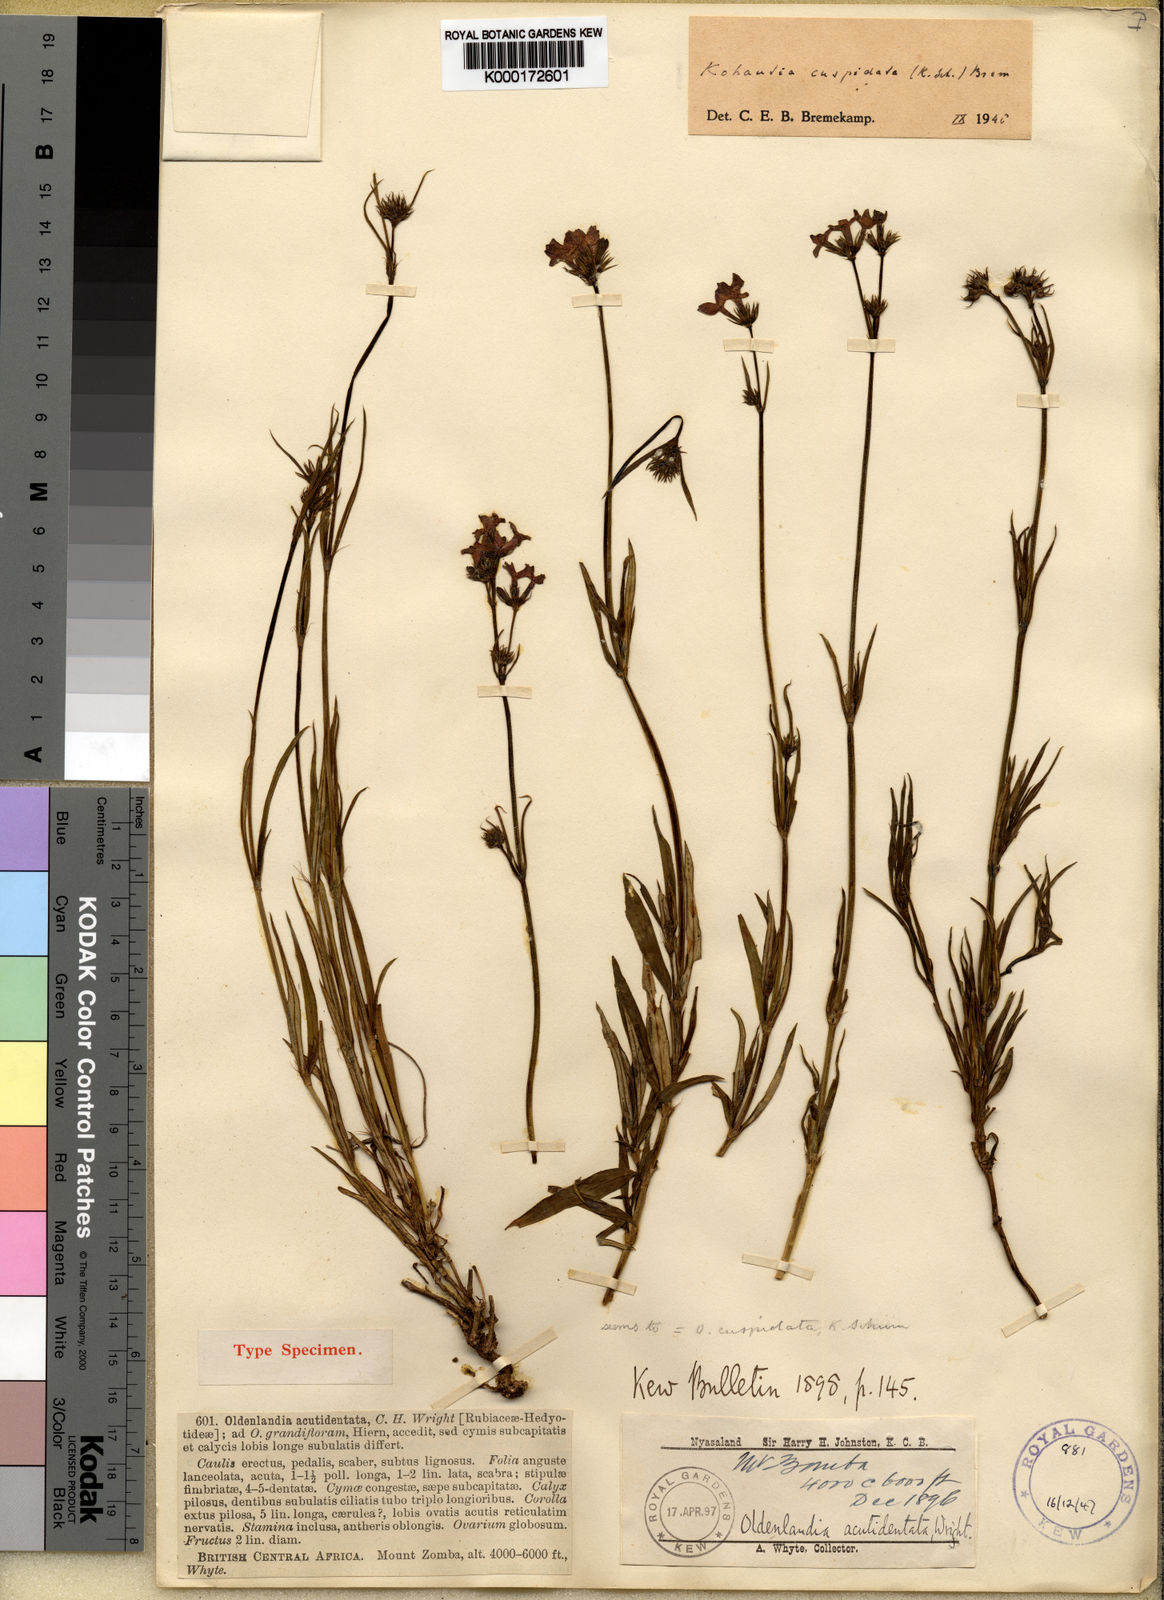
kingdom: Plantae
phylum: Tracheophyta
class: Magnoliopsida
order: Gentianales
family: Rubiaceae
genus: Cordylostigma
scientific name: Cordylostigma cuspidatum
